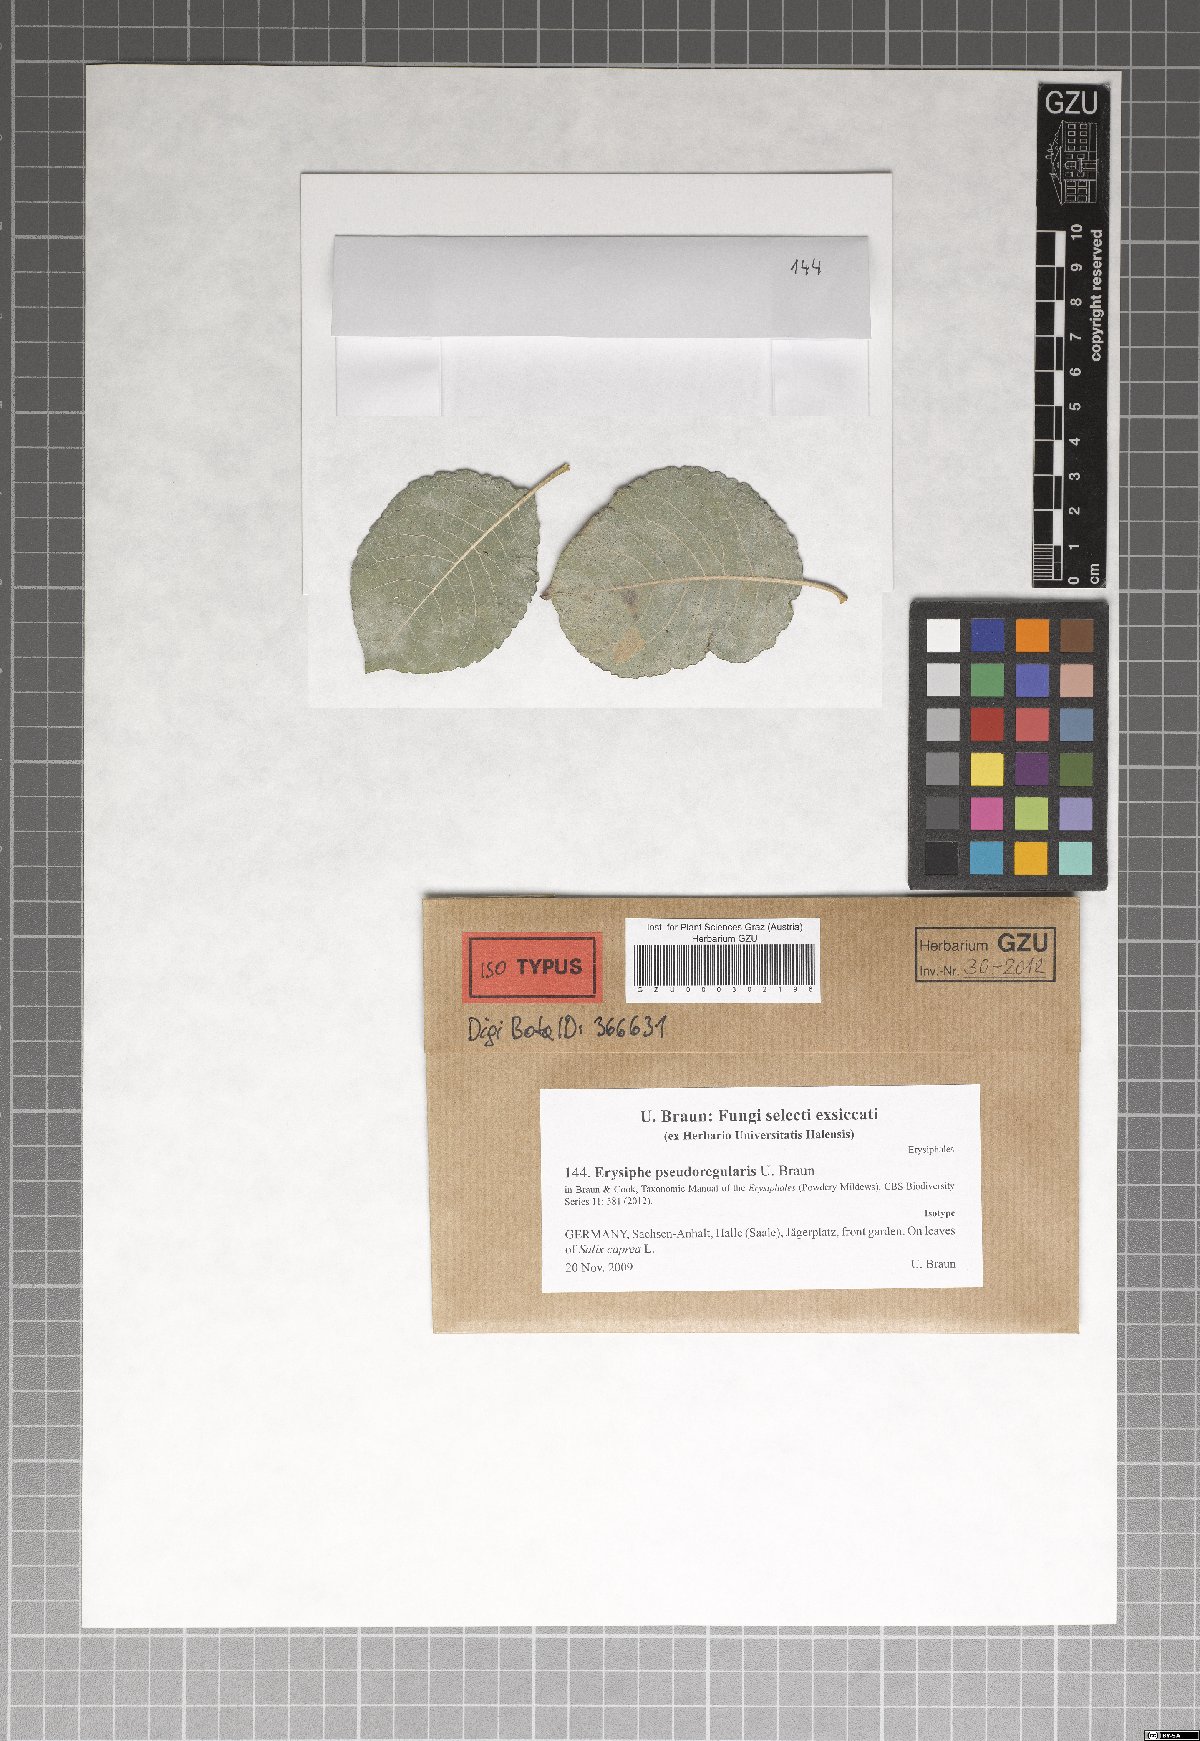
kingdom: Fungi
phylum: Ascomycota
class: Leotiomycetes
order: Helotiales
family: Erysiphaceae
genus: Erysiphe
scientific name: Erysiphe pseudoregularis
